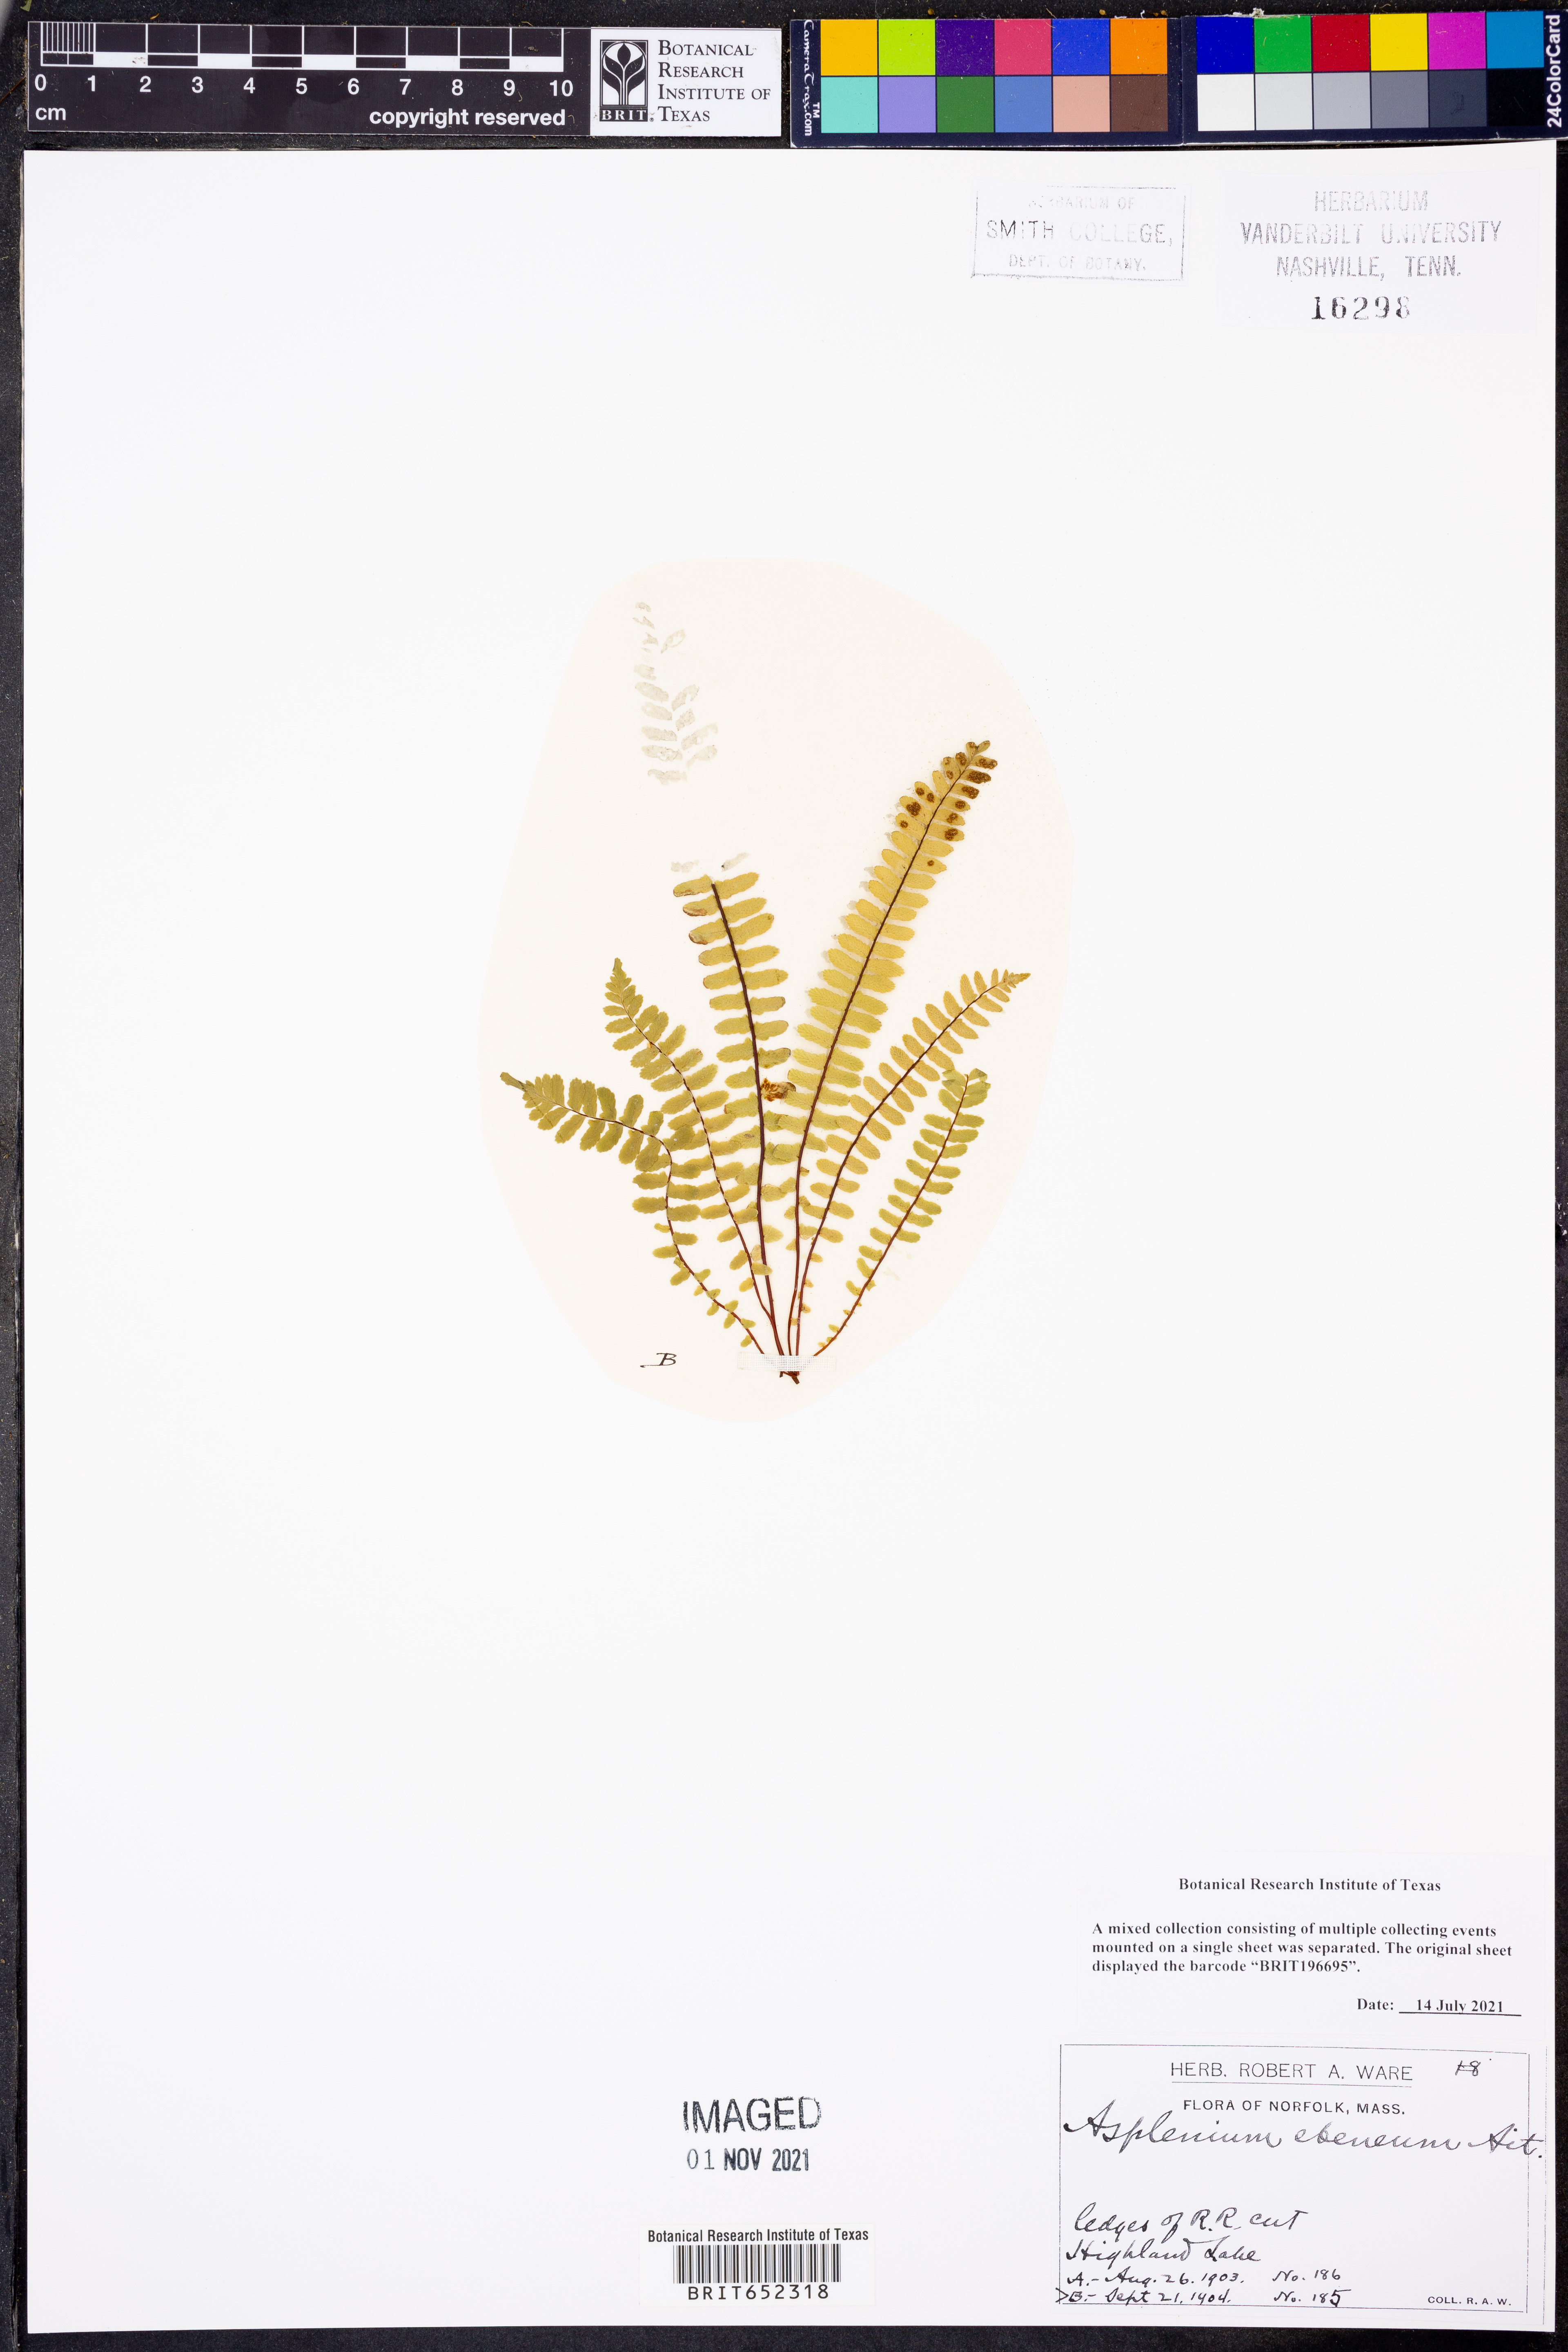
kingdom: Plantae
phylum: Tracheophyta
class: Polypodiopsida
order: Polypodiales
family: Aspleniaceae
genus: Asplenium
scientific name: Asplenium ebeneum
